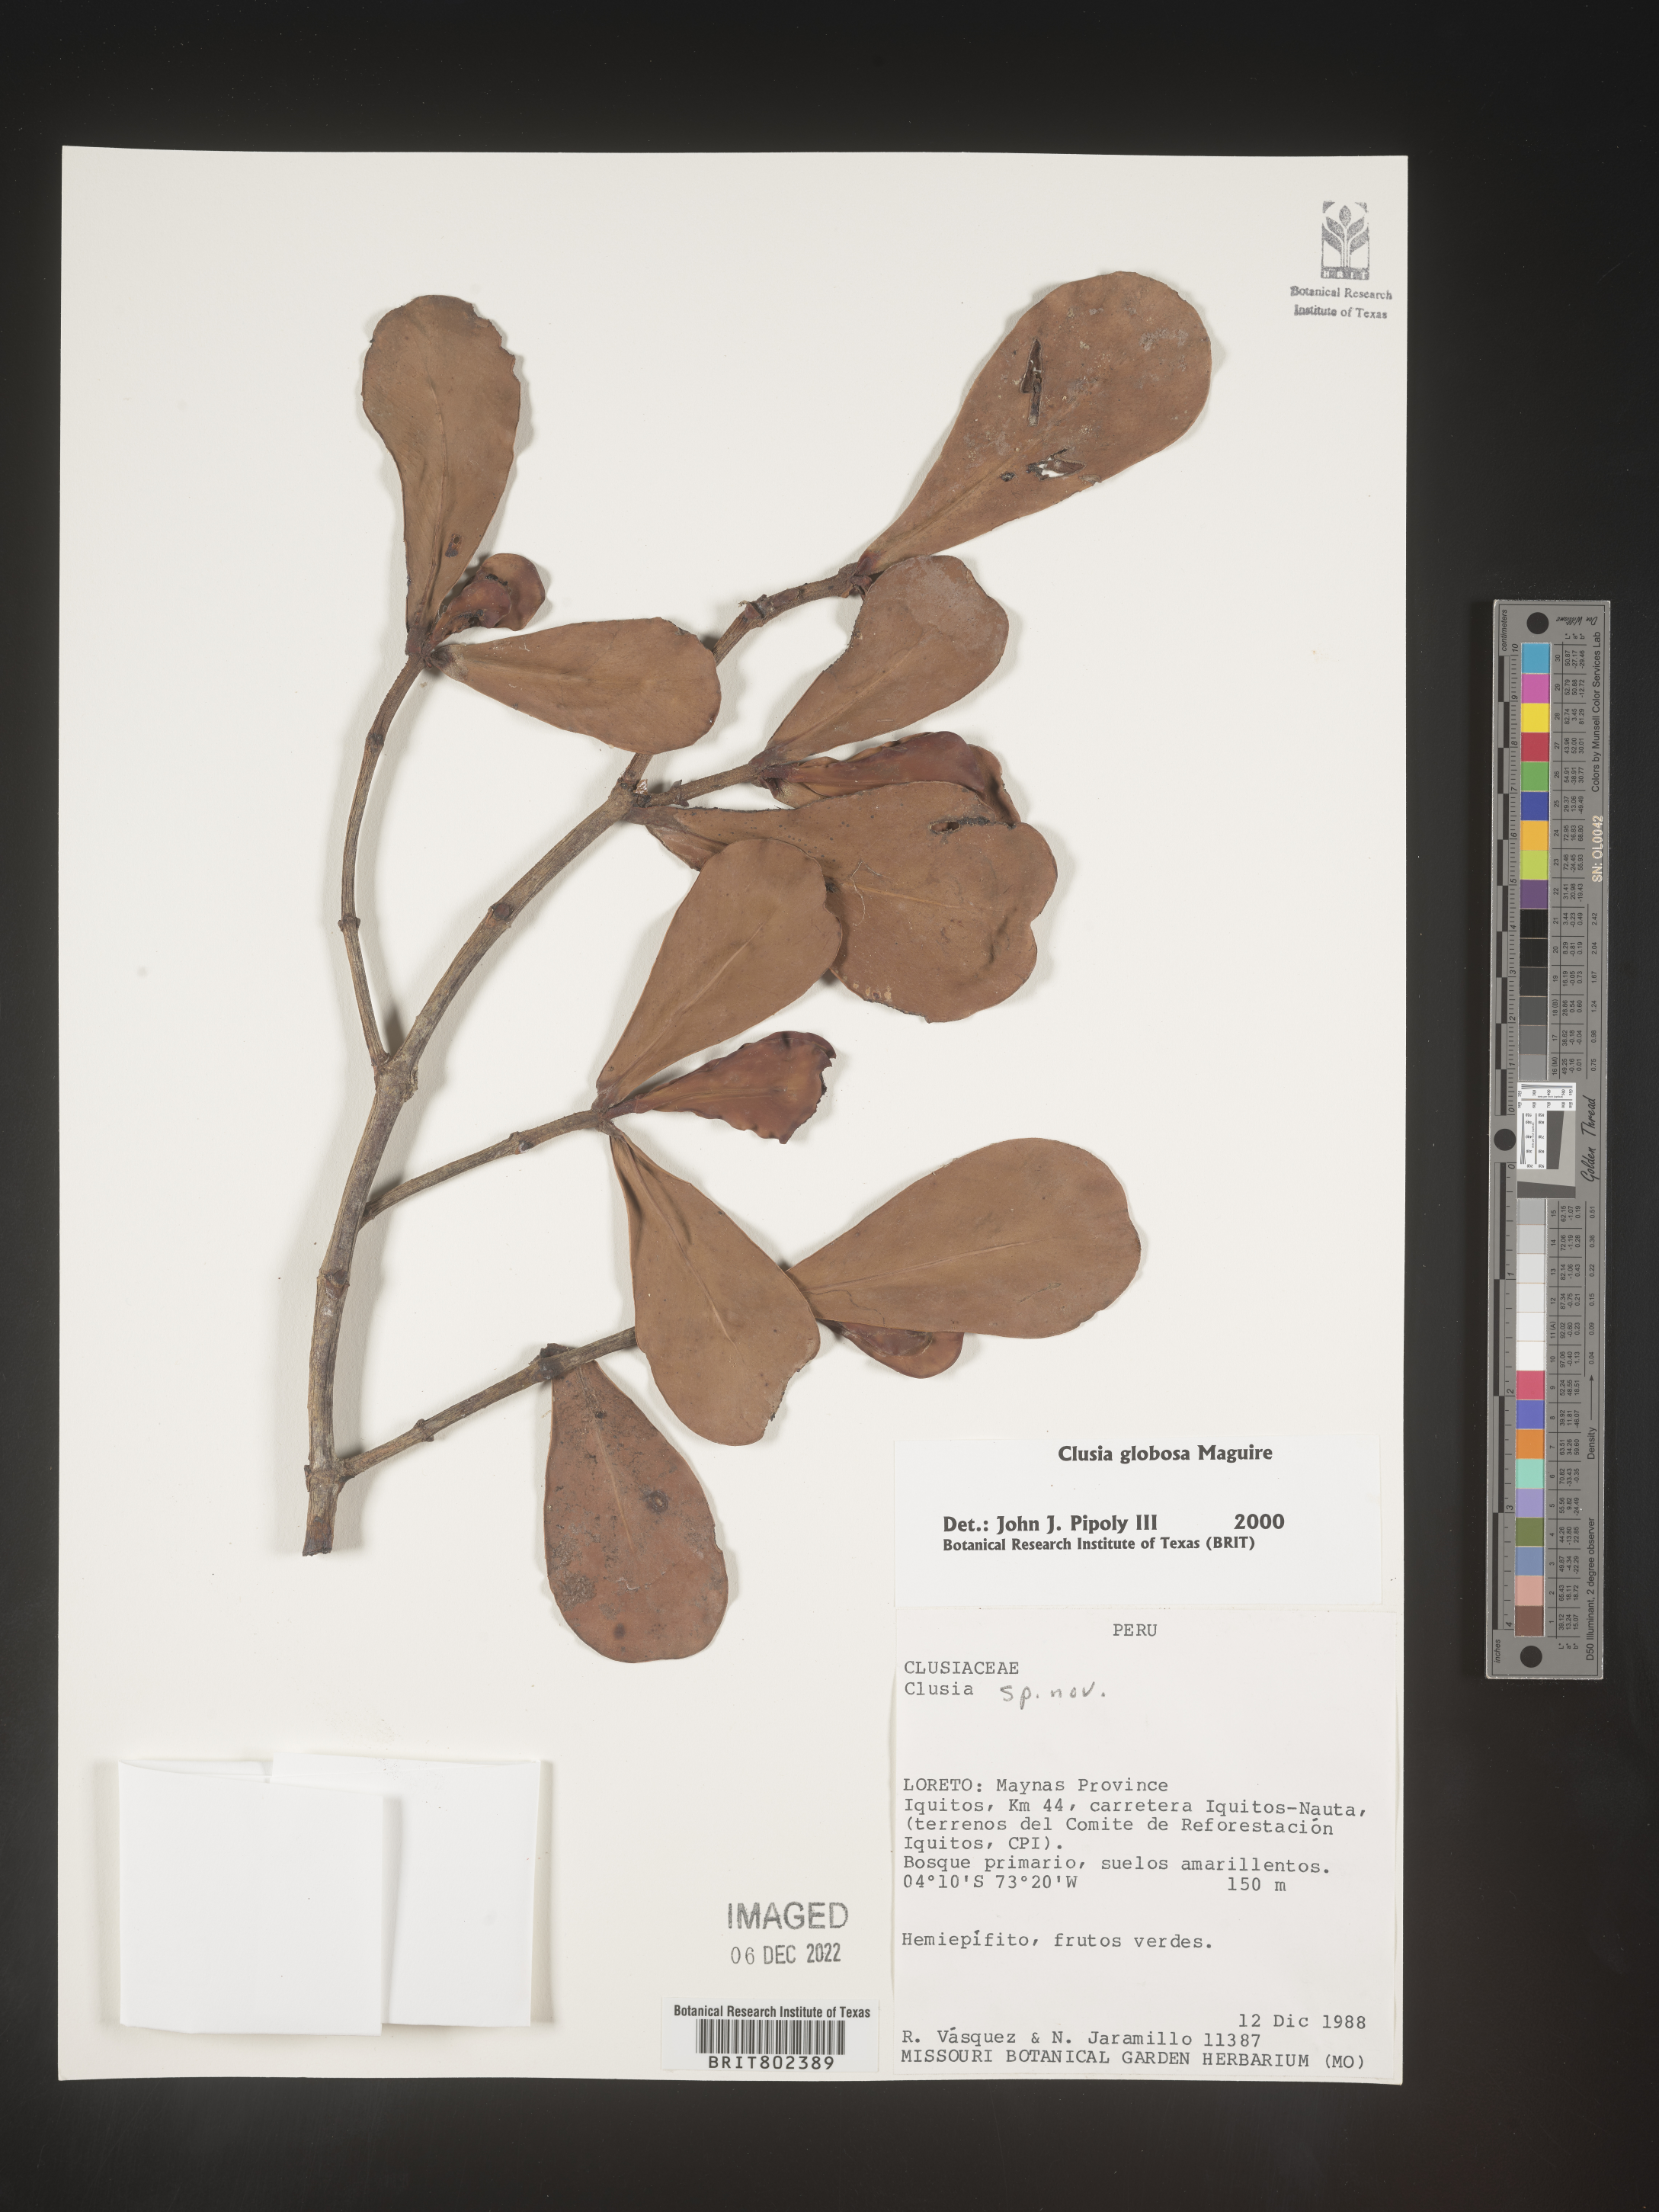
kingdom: Plantae
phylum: Tracheophyta
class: Magnoliopsida
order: Malpighiales
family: Clusiaceae
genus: Clusia
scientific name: Clusia
